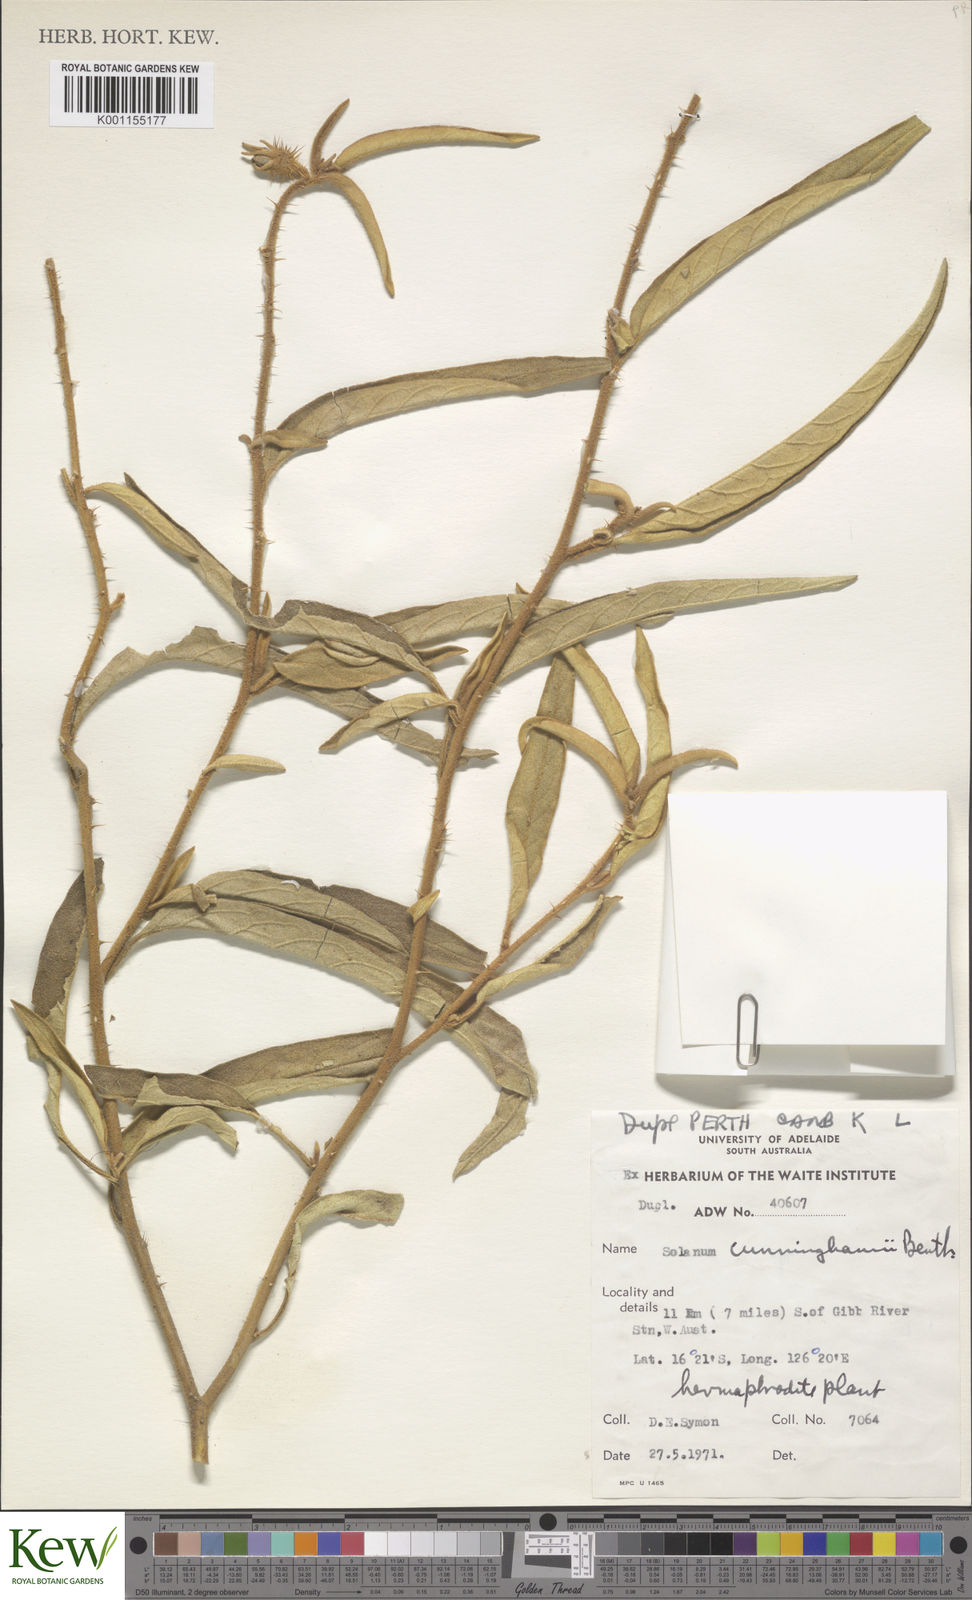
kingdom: Plantae
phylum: Tracheophyta
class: Magnoliopsida
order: Solanales
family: Solanaceae
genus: Solanum
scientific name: Solanum cunninghamii
